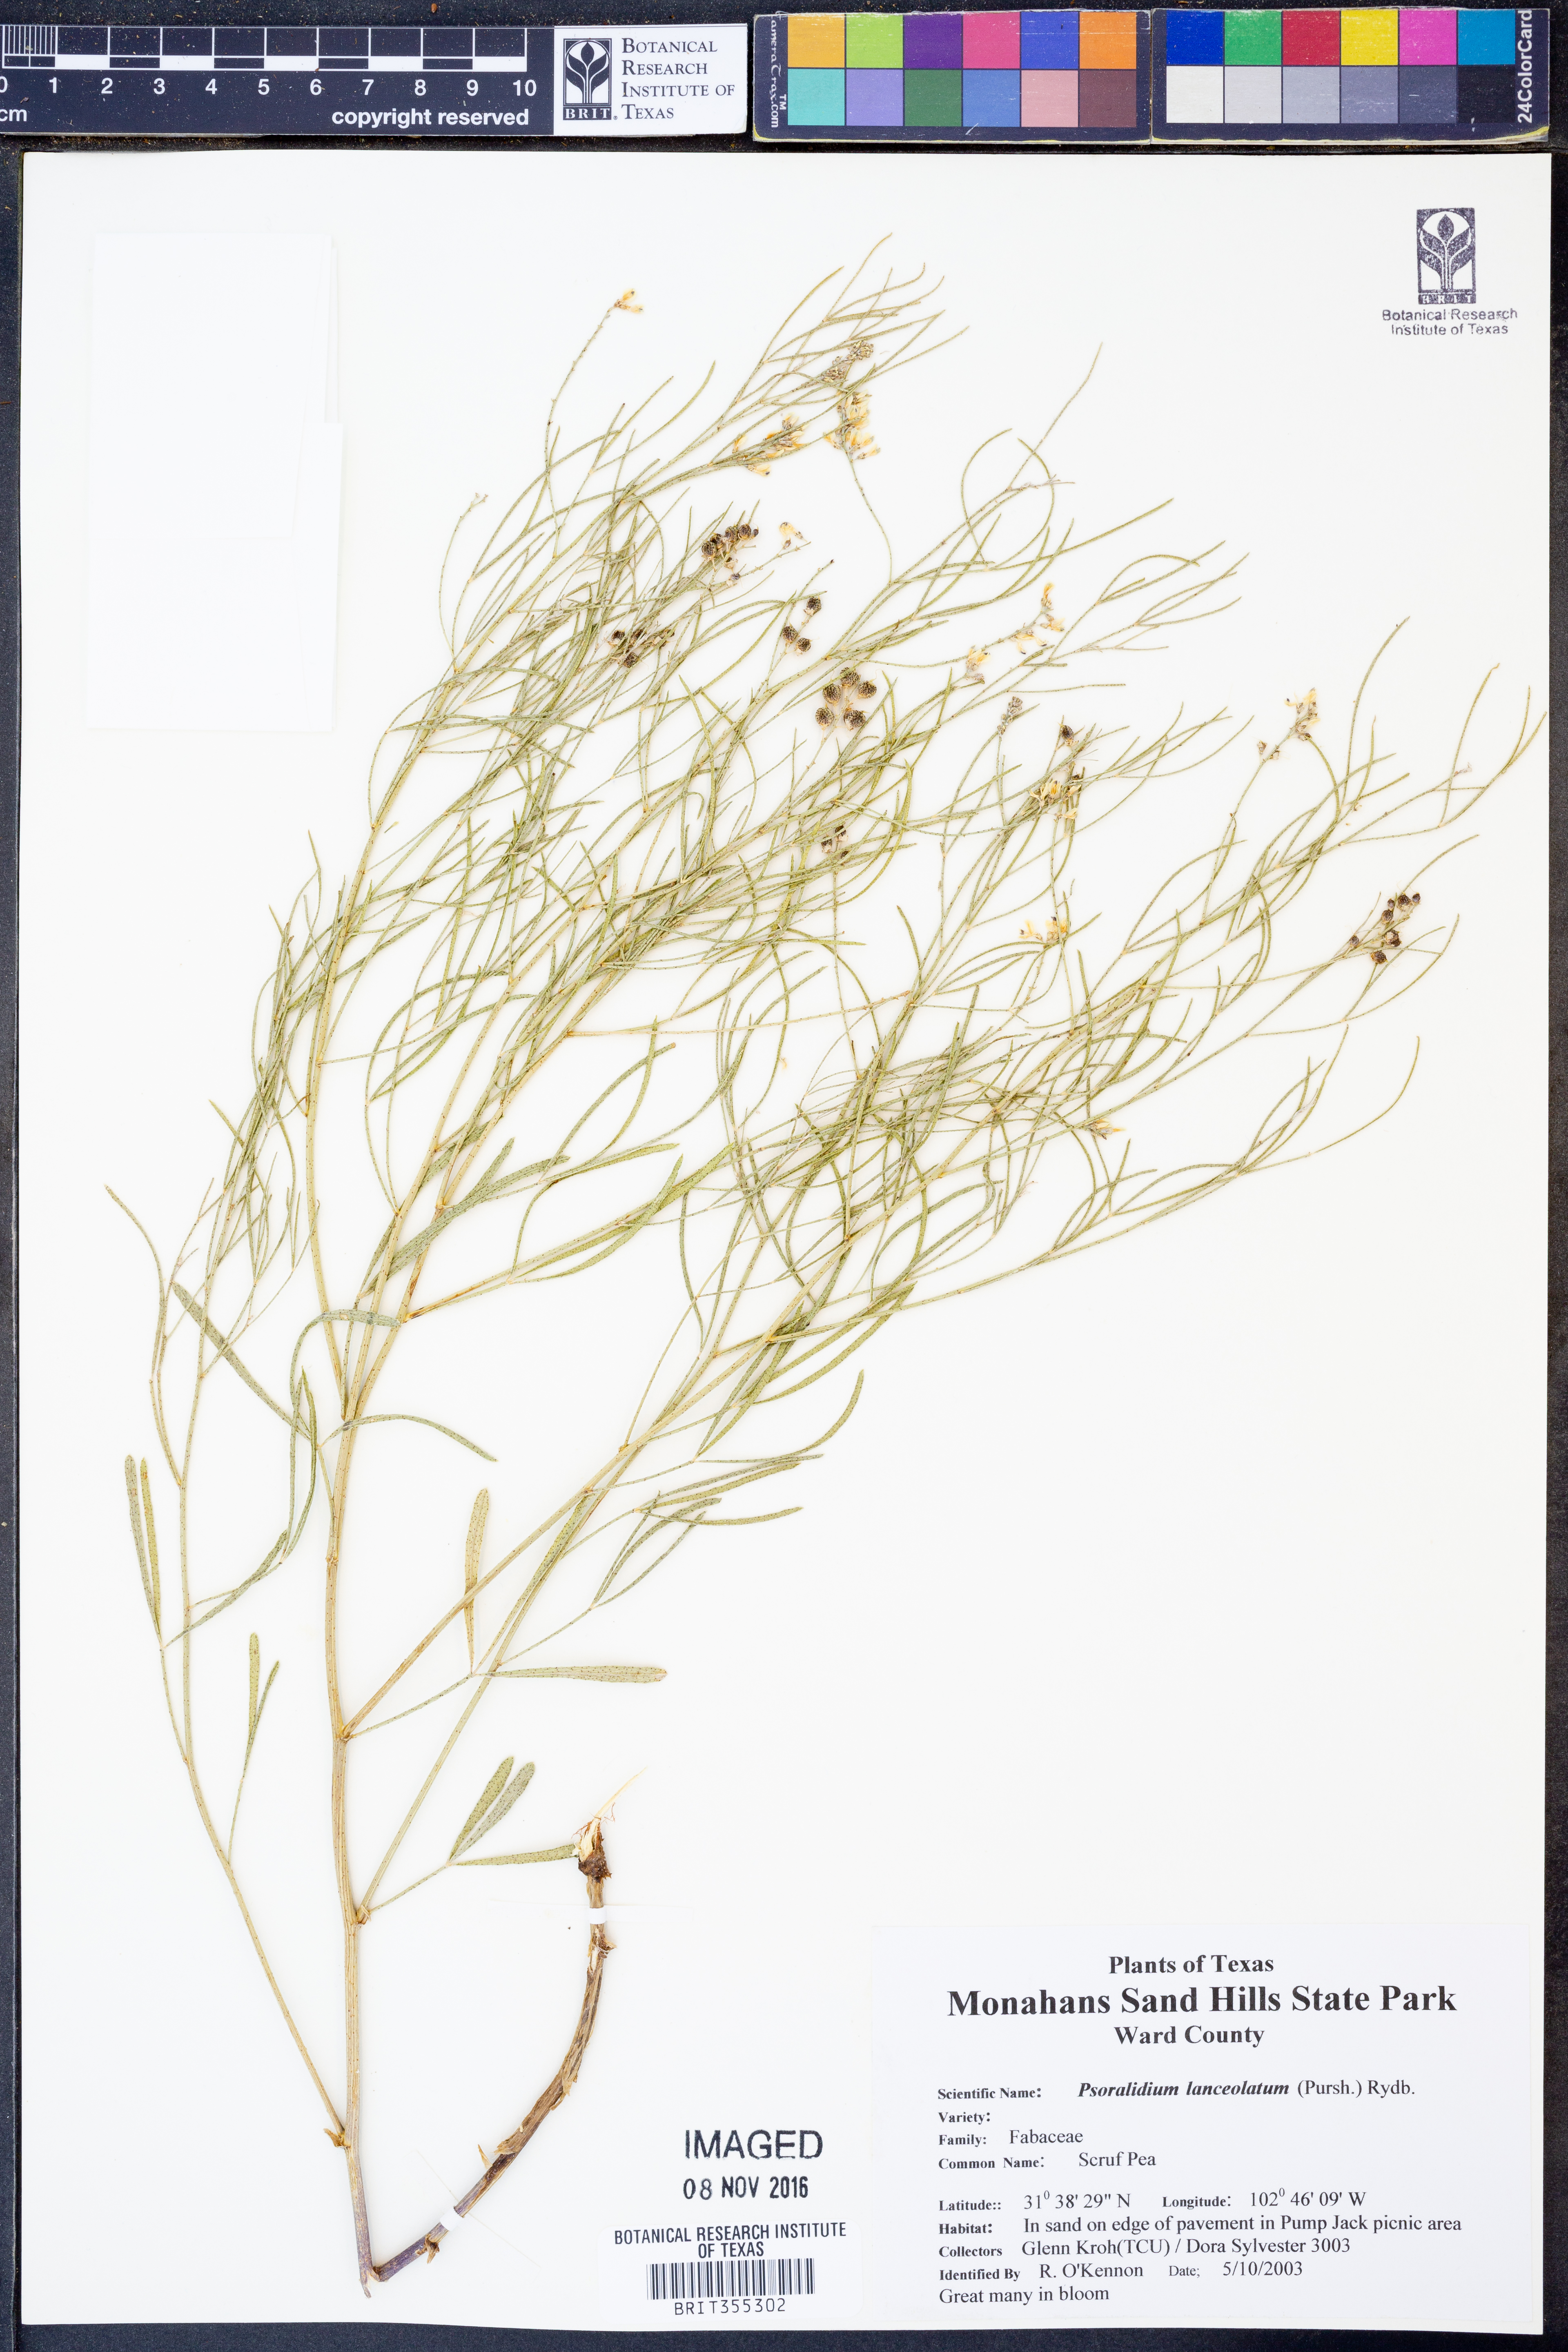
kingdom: Plantae
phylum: Tracheophyta
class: Magnoliopsida
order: Fabales
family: Fabaceae
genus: Ladeania
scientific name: Ladeania lanceolata
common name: Dune scurf-pea
